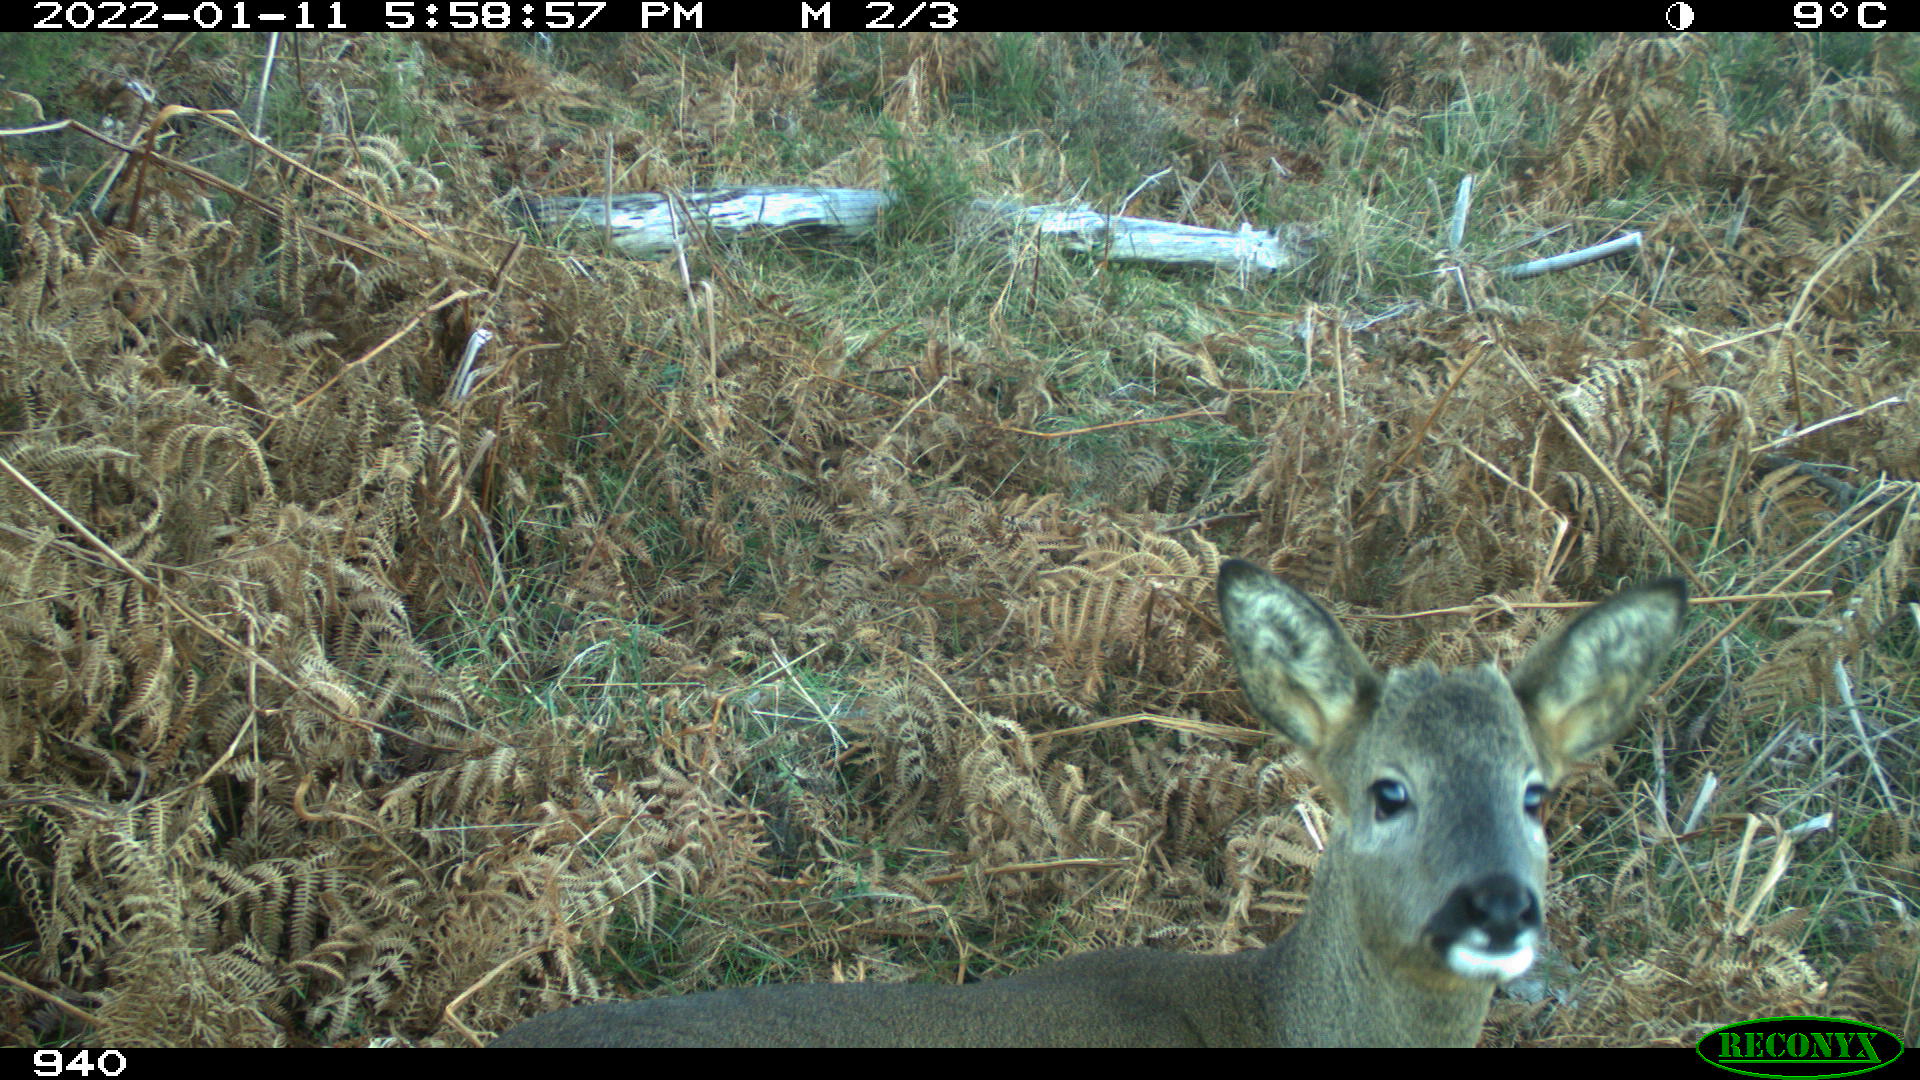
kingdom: Animalia
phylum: Chordata
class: Mammalia
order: Artiodactyla
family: Cervidae
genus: Capreolus
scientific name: Capreolus capreolus
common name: Western roe deer
